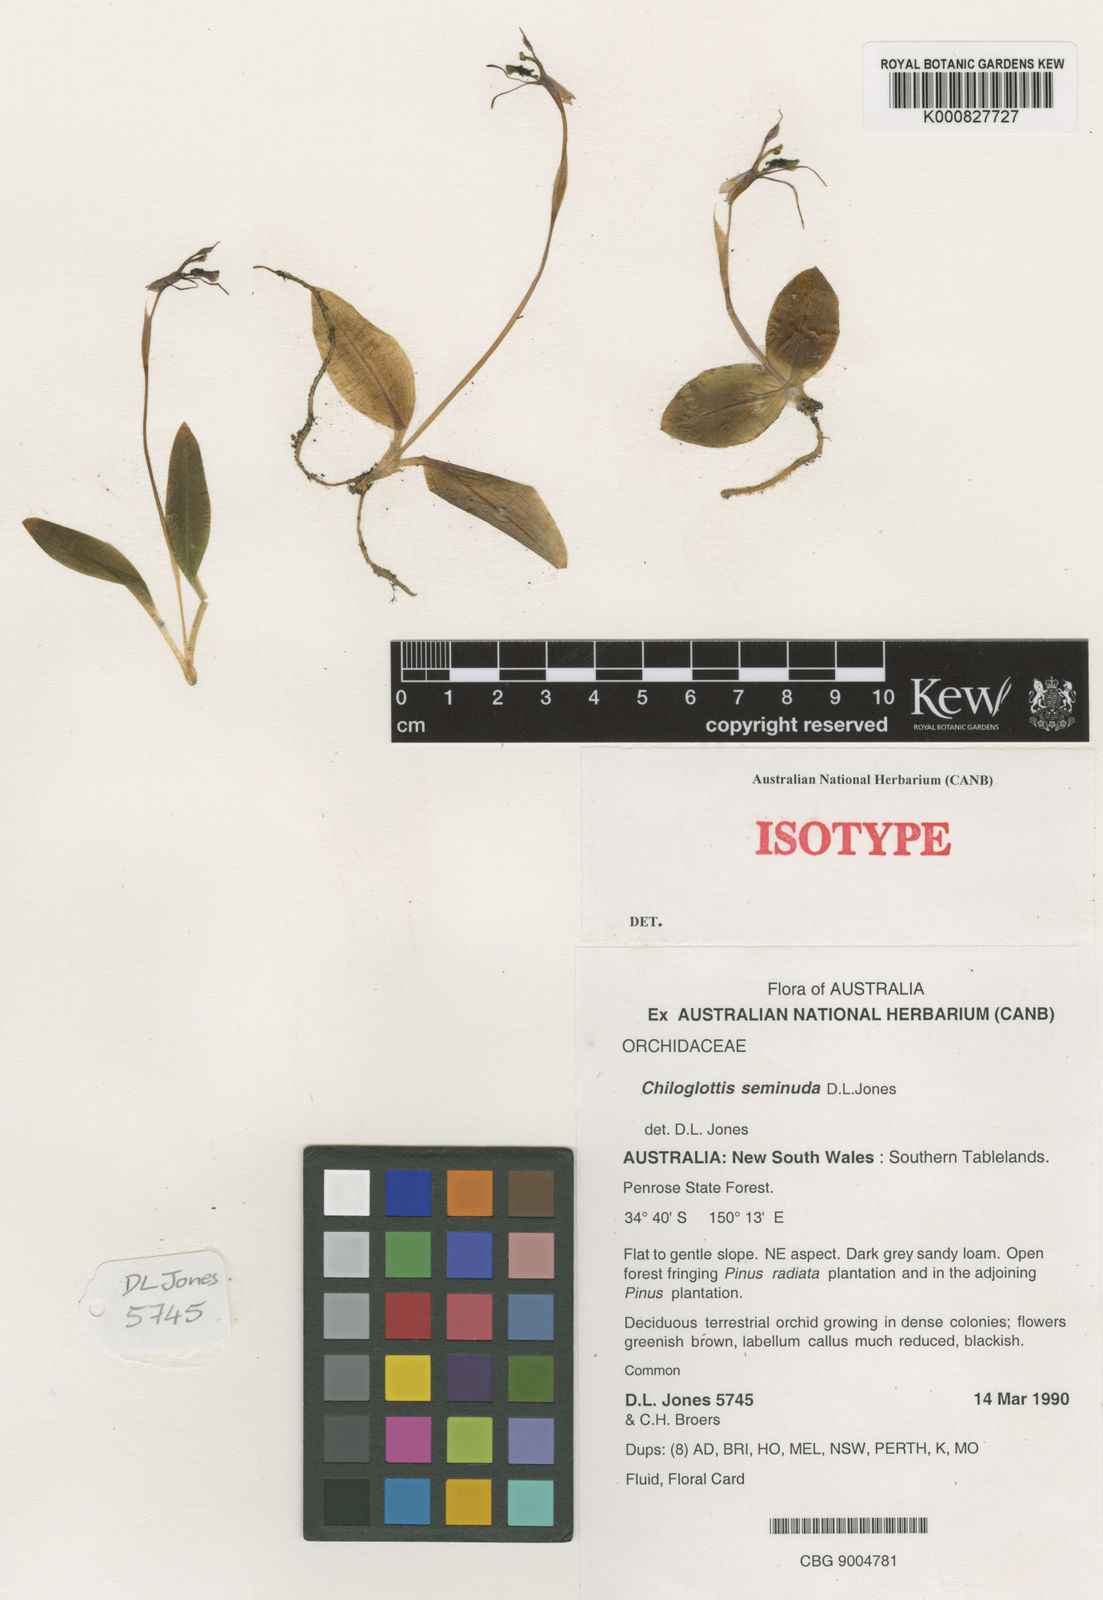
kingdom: Plantae
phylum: Tracheophyta
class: Liliopsida
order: Asparagales
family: Orchidaceae
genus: Chiloglottis
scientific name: Chiloglottis seminuda
